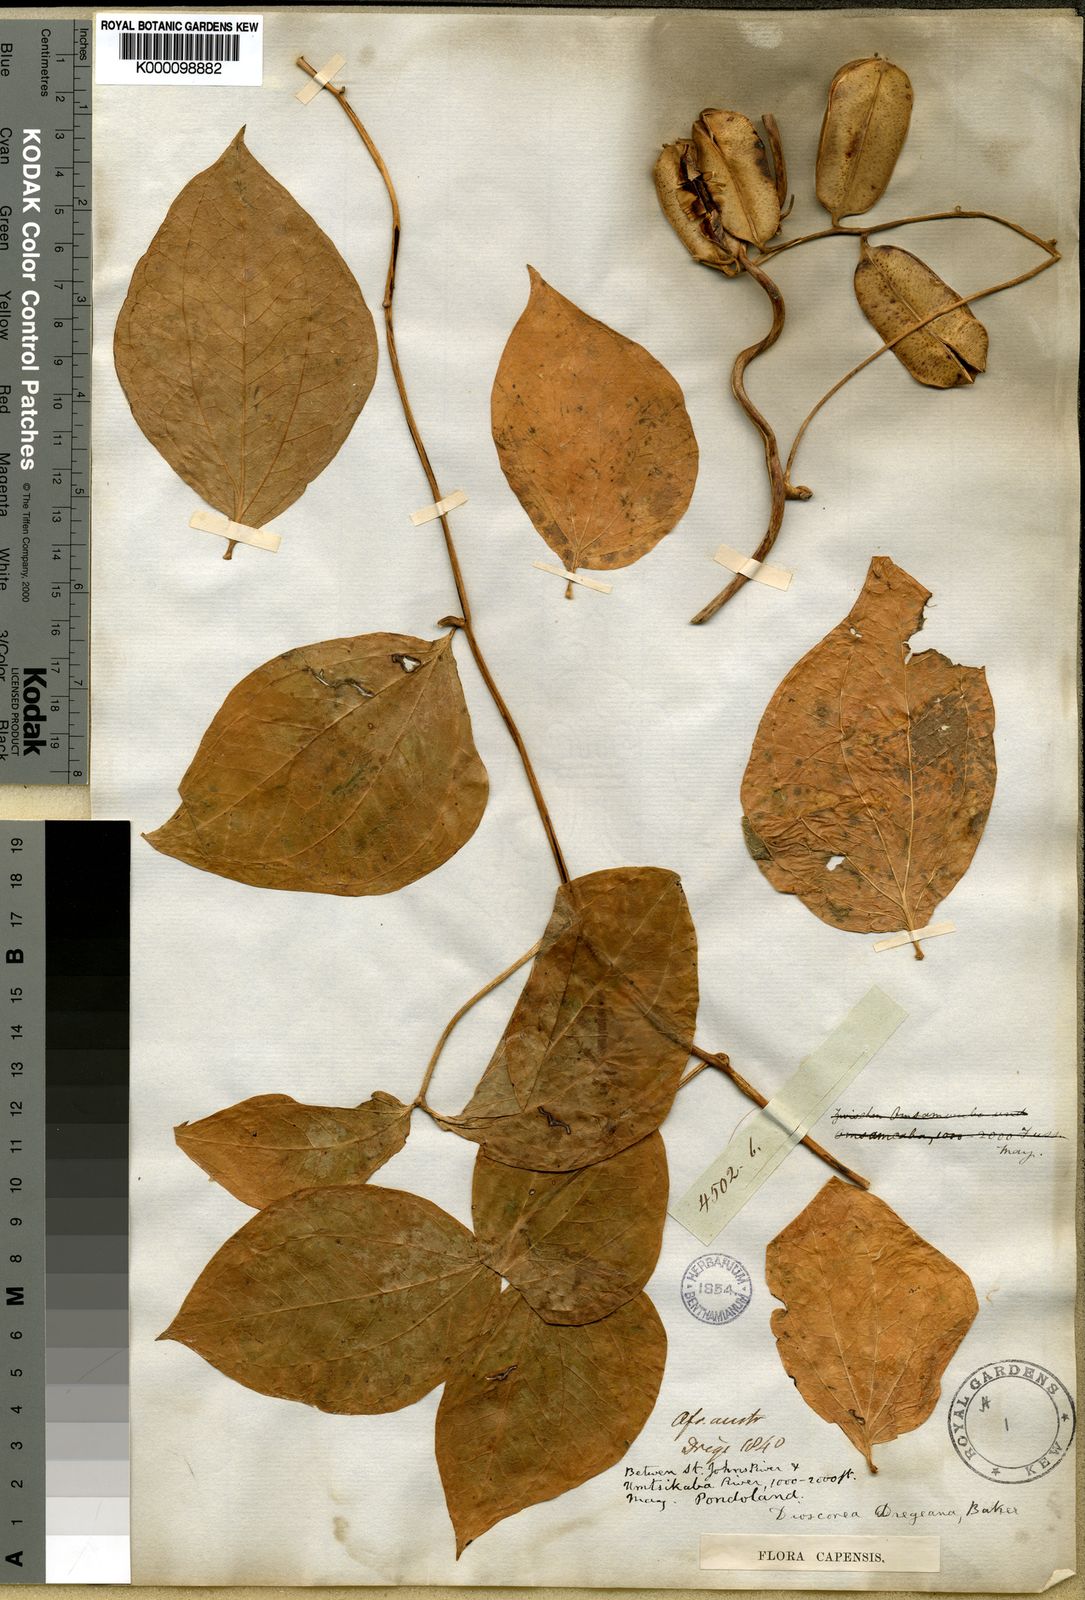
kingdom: Plantae
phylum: Tracheophyta
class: Liliopsida
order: Dioscoreales
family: Dioscoreaceae
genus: Dioscorea
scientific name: Dioscorea
